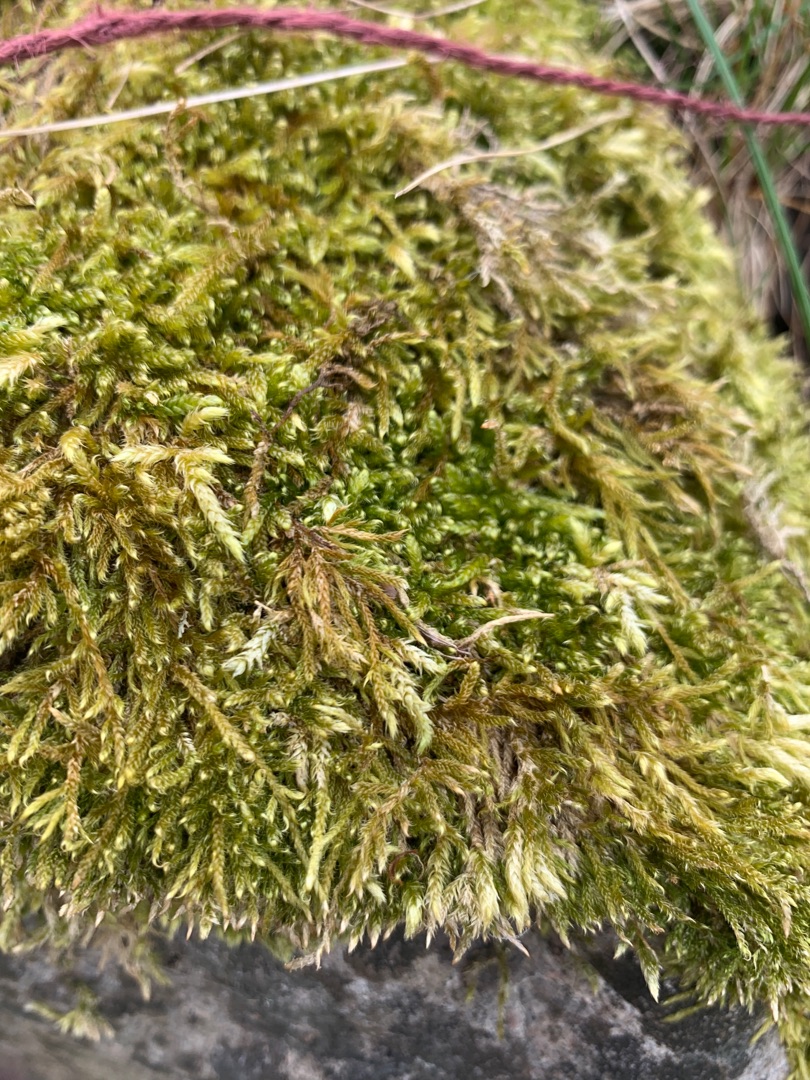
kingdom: Plantae
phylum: Bryophyta
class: Bryopsida
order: Hypnales
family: Hypnaceae
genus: Hypnum
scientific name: Hypnum cupressiforme
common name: Almindelig cypresmos
